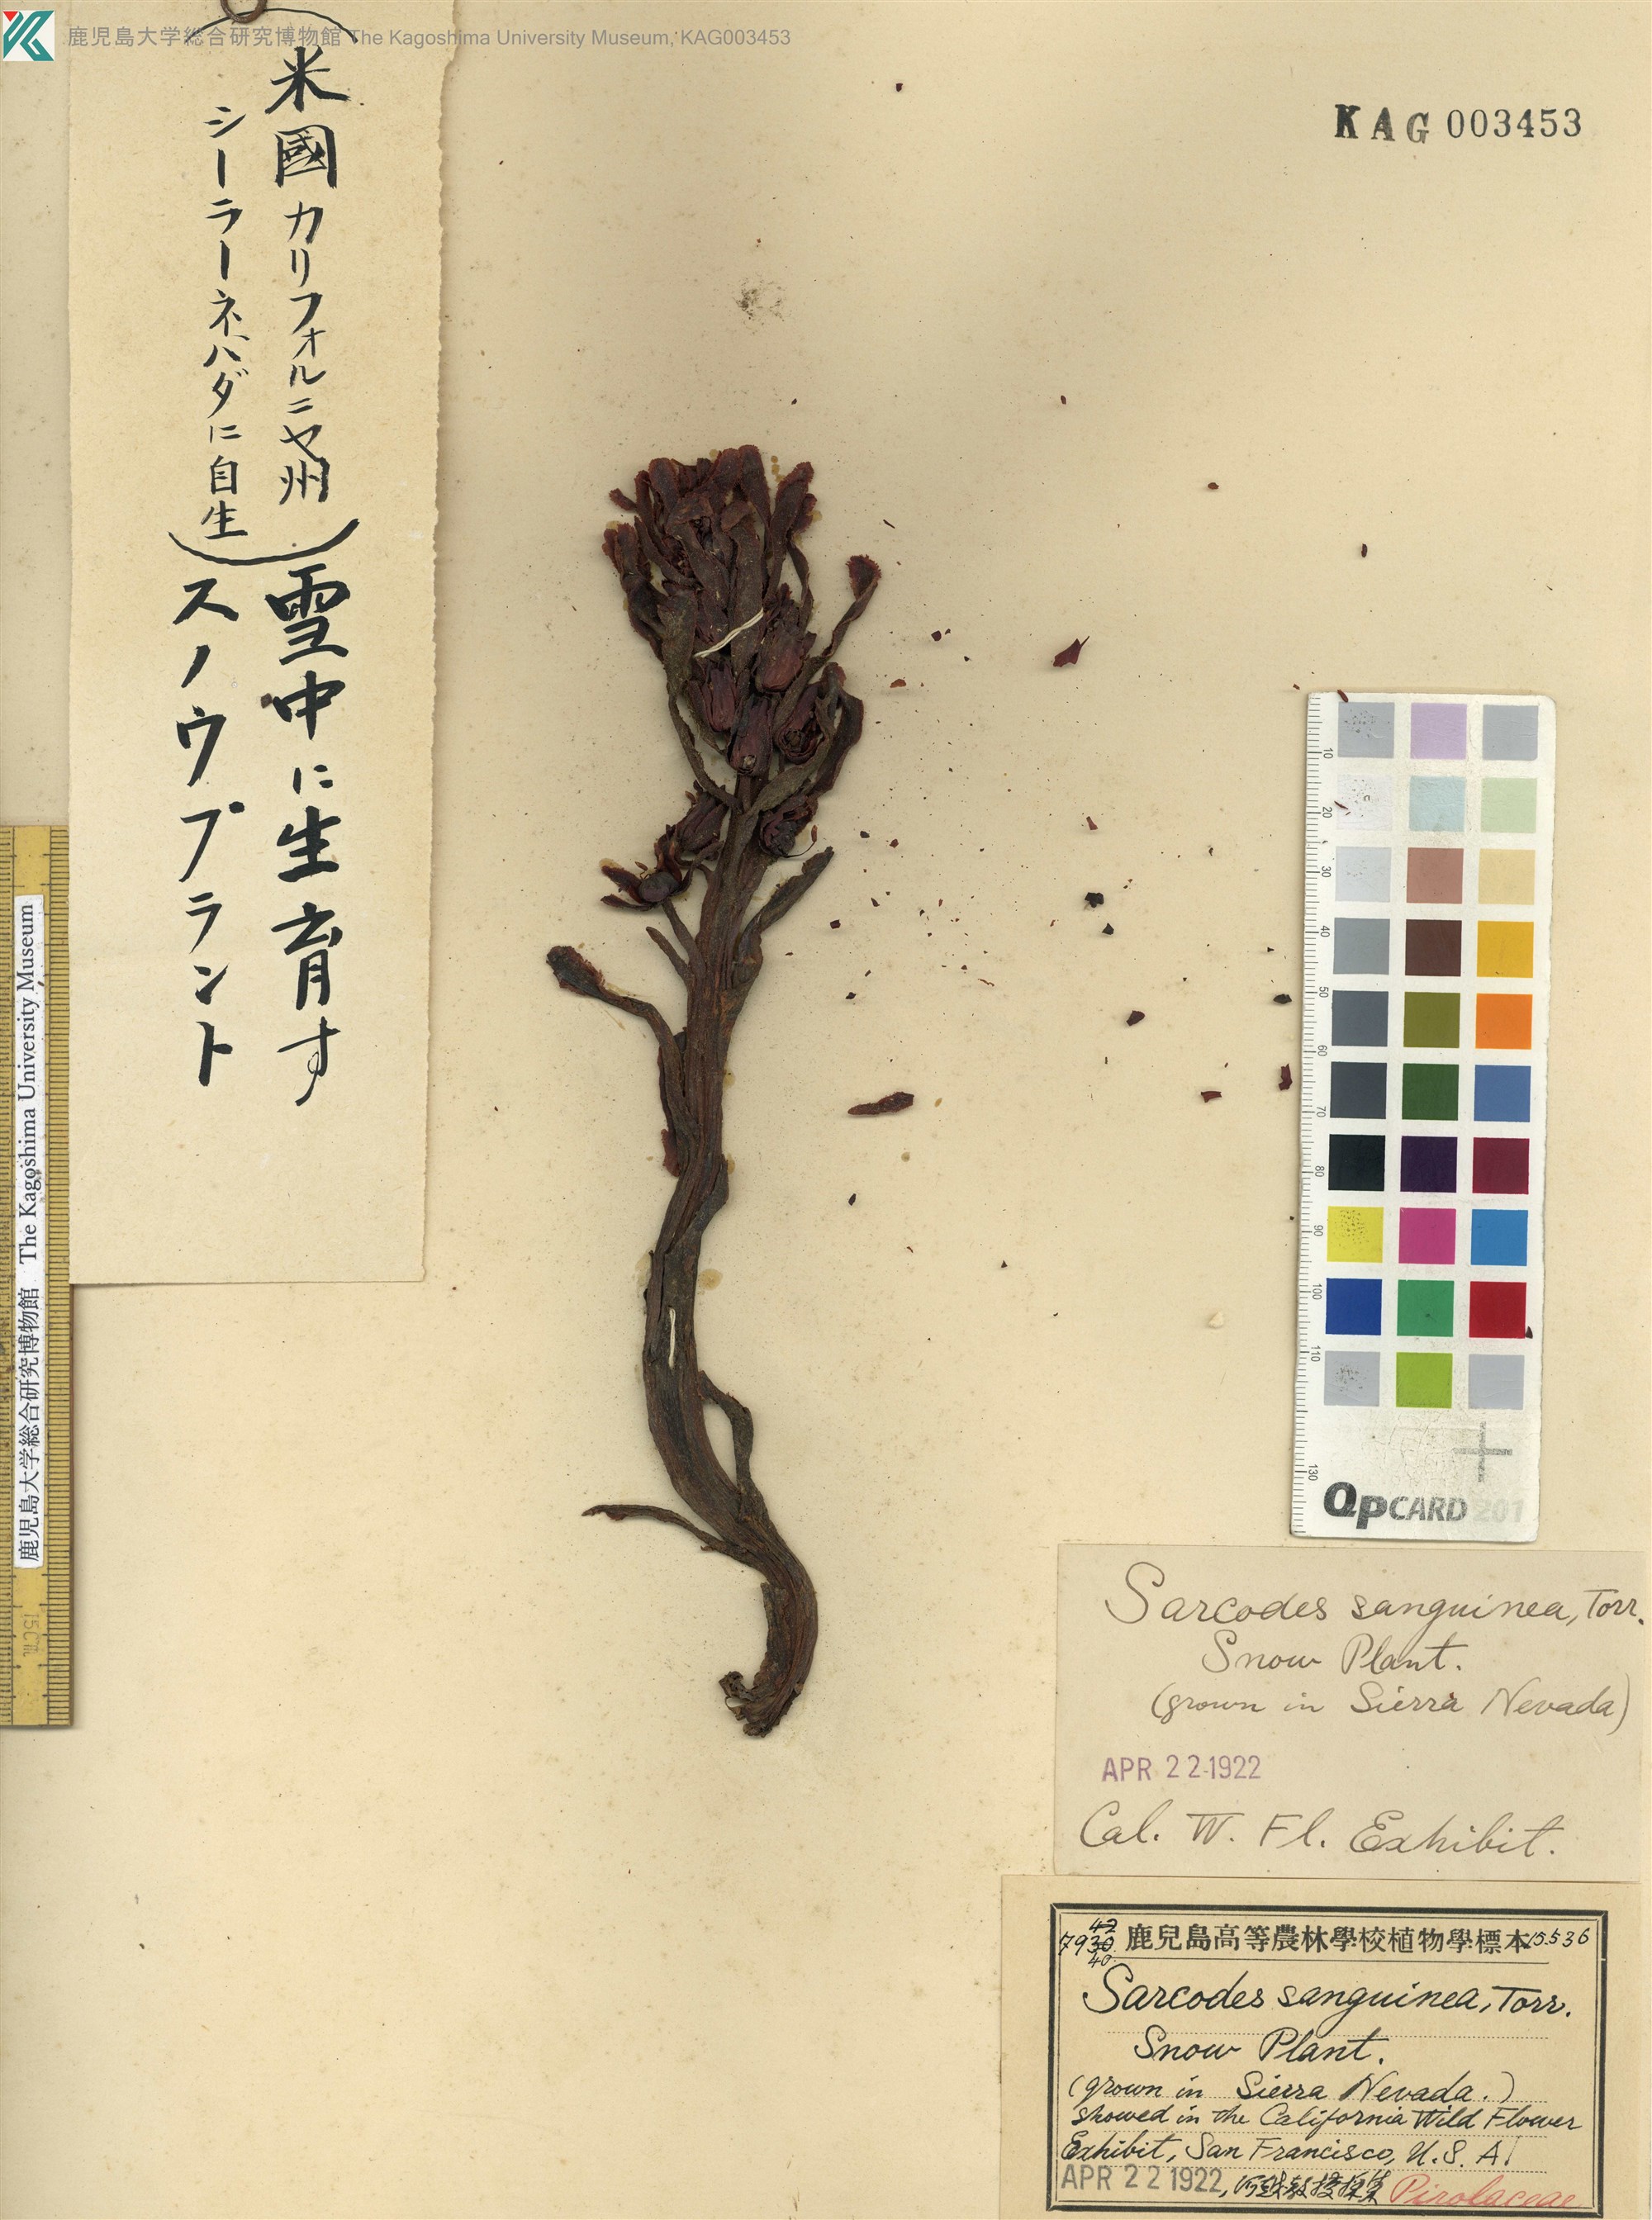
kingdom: Plantae
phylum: Tracheophyta
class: Magnoliopsida
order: Ericales
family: Ericaceae
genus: Sarcodes
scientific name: Sarcodes sanguinea
